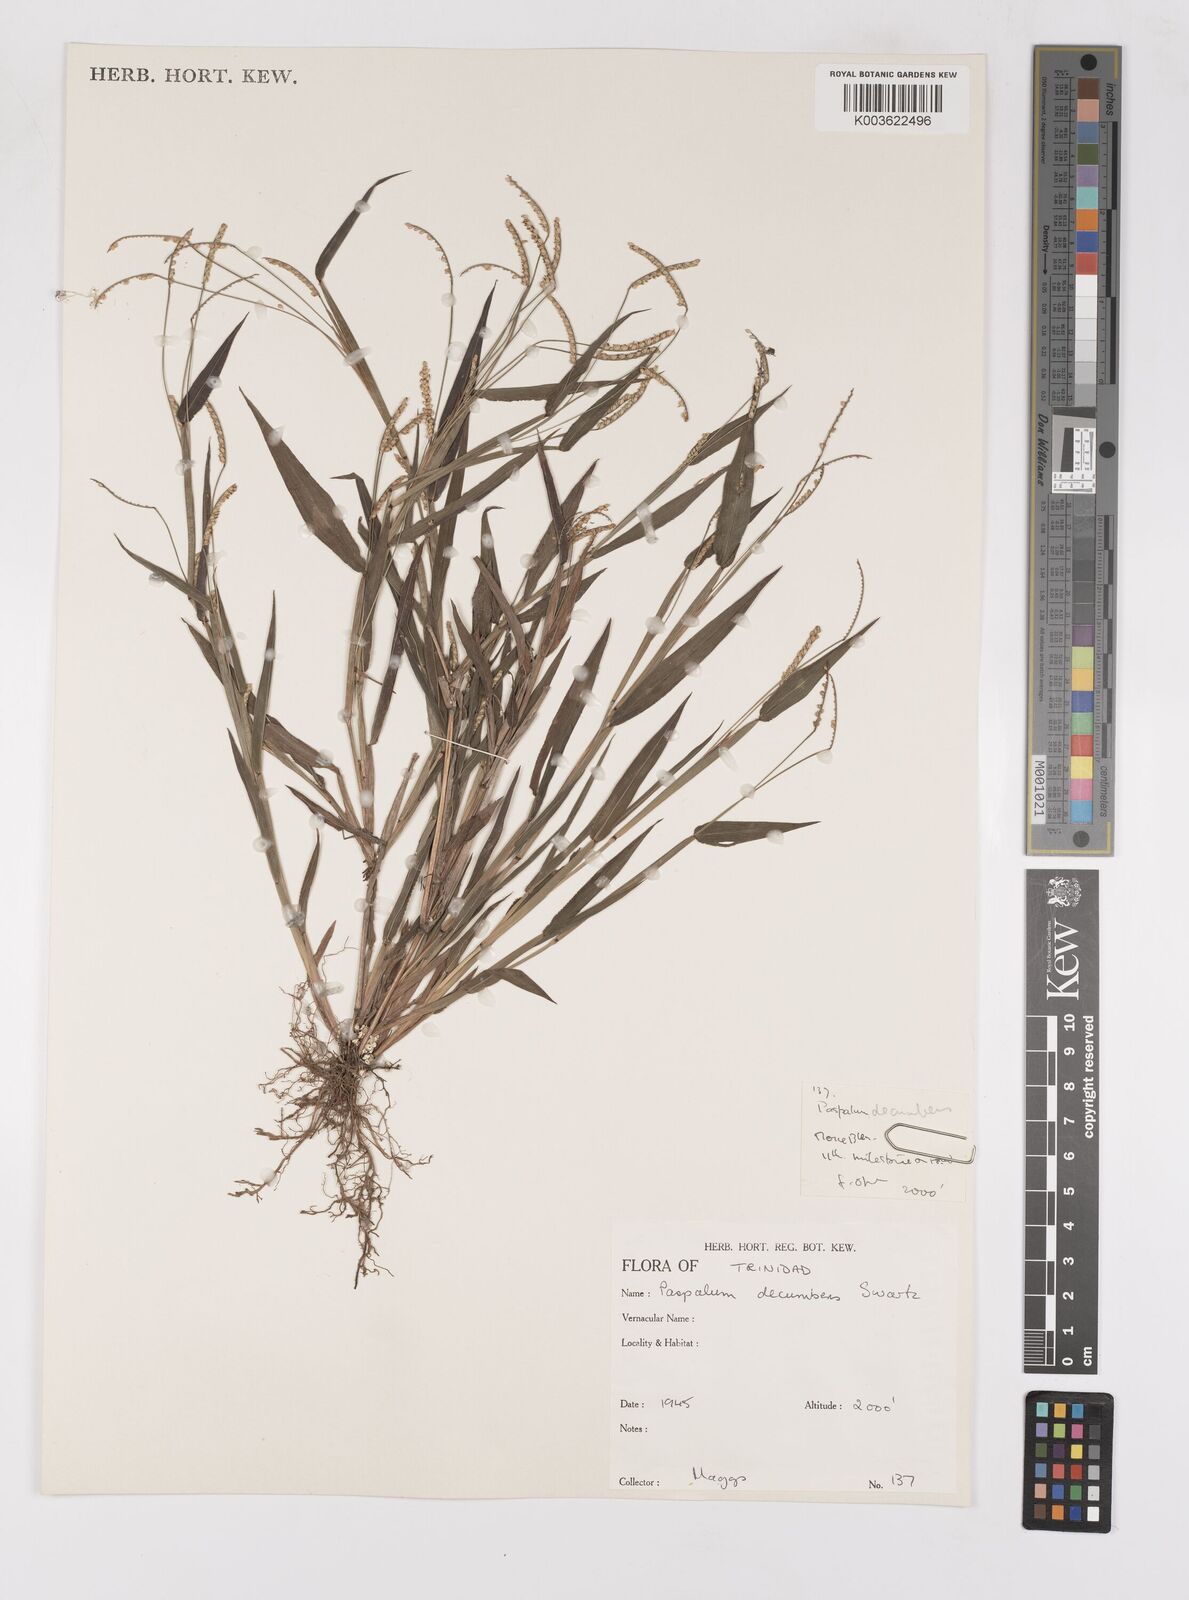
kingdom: Plantae
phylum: Tracheophyta
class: Liliopsida
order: Poales
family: Poaceae
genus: Paspalum
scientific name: Paspalum decumbens
